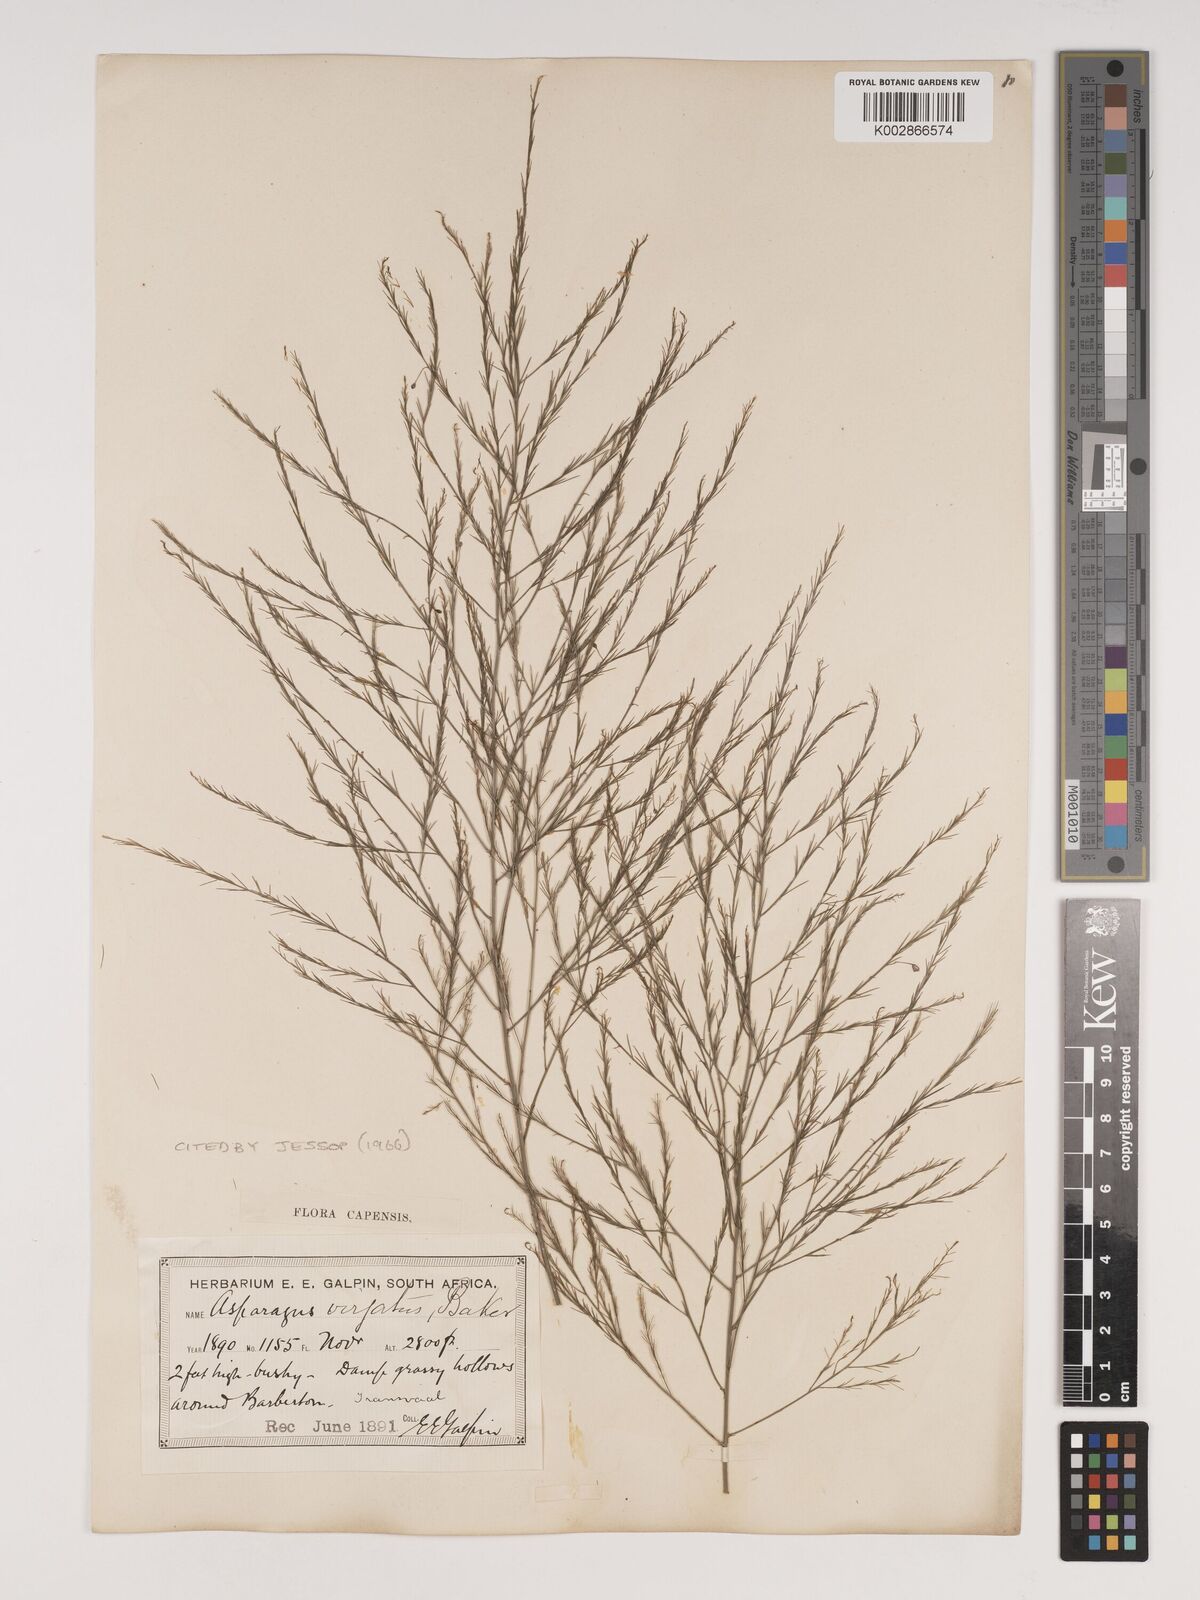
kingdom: Plantae
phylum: Tracheophyta
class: Liliopsida
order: Asparagales
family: Asparagaceae
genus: Asparagus
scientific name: Asparagus virgatus
